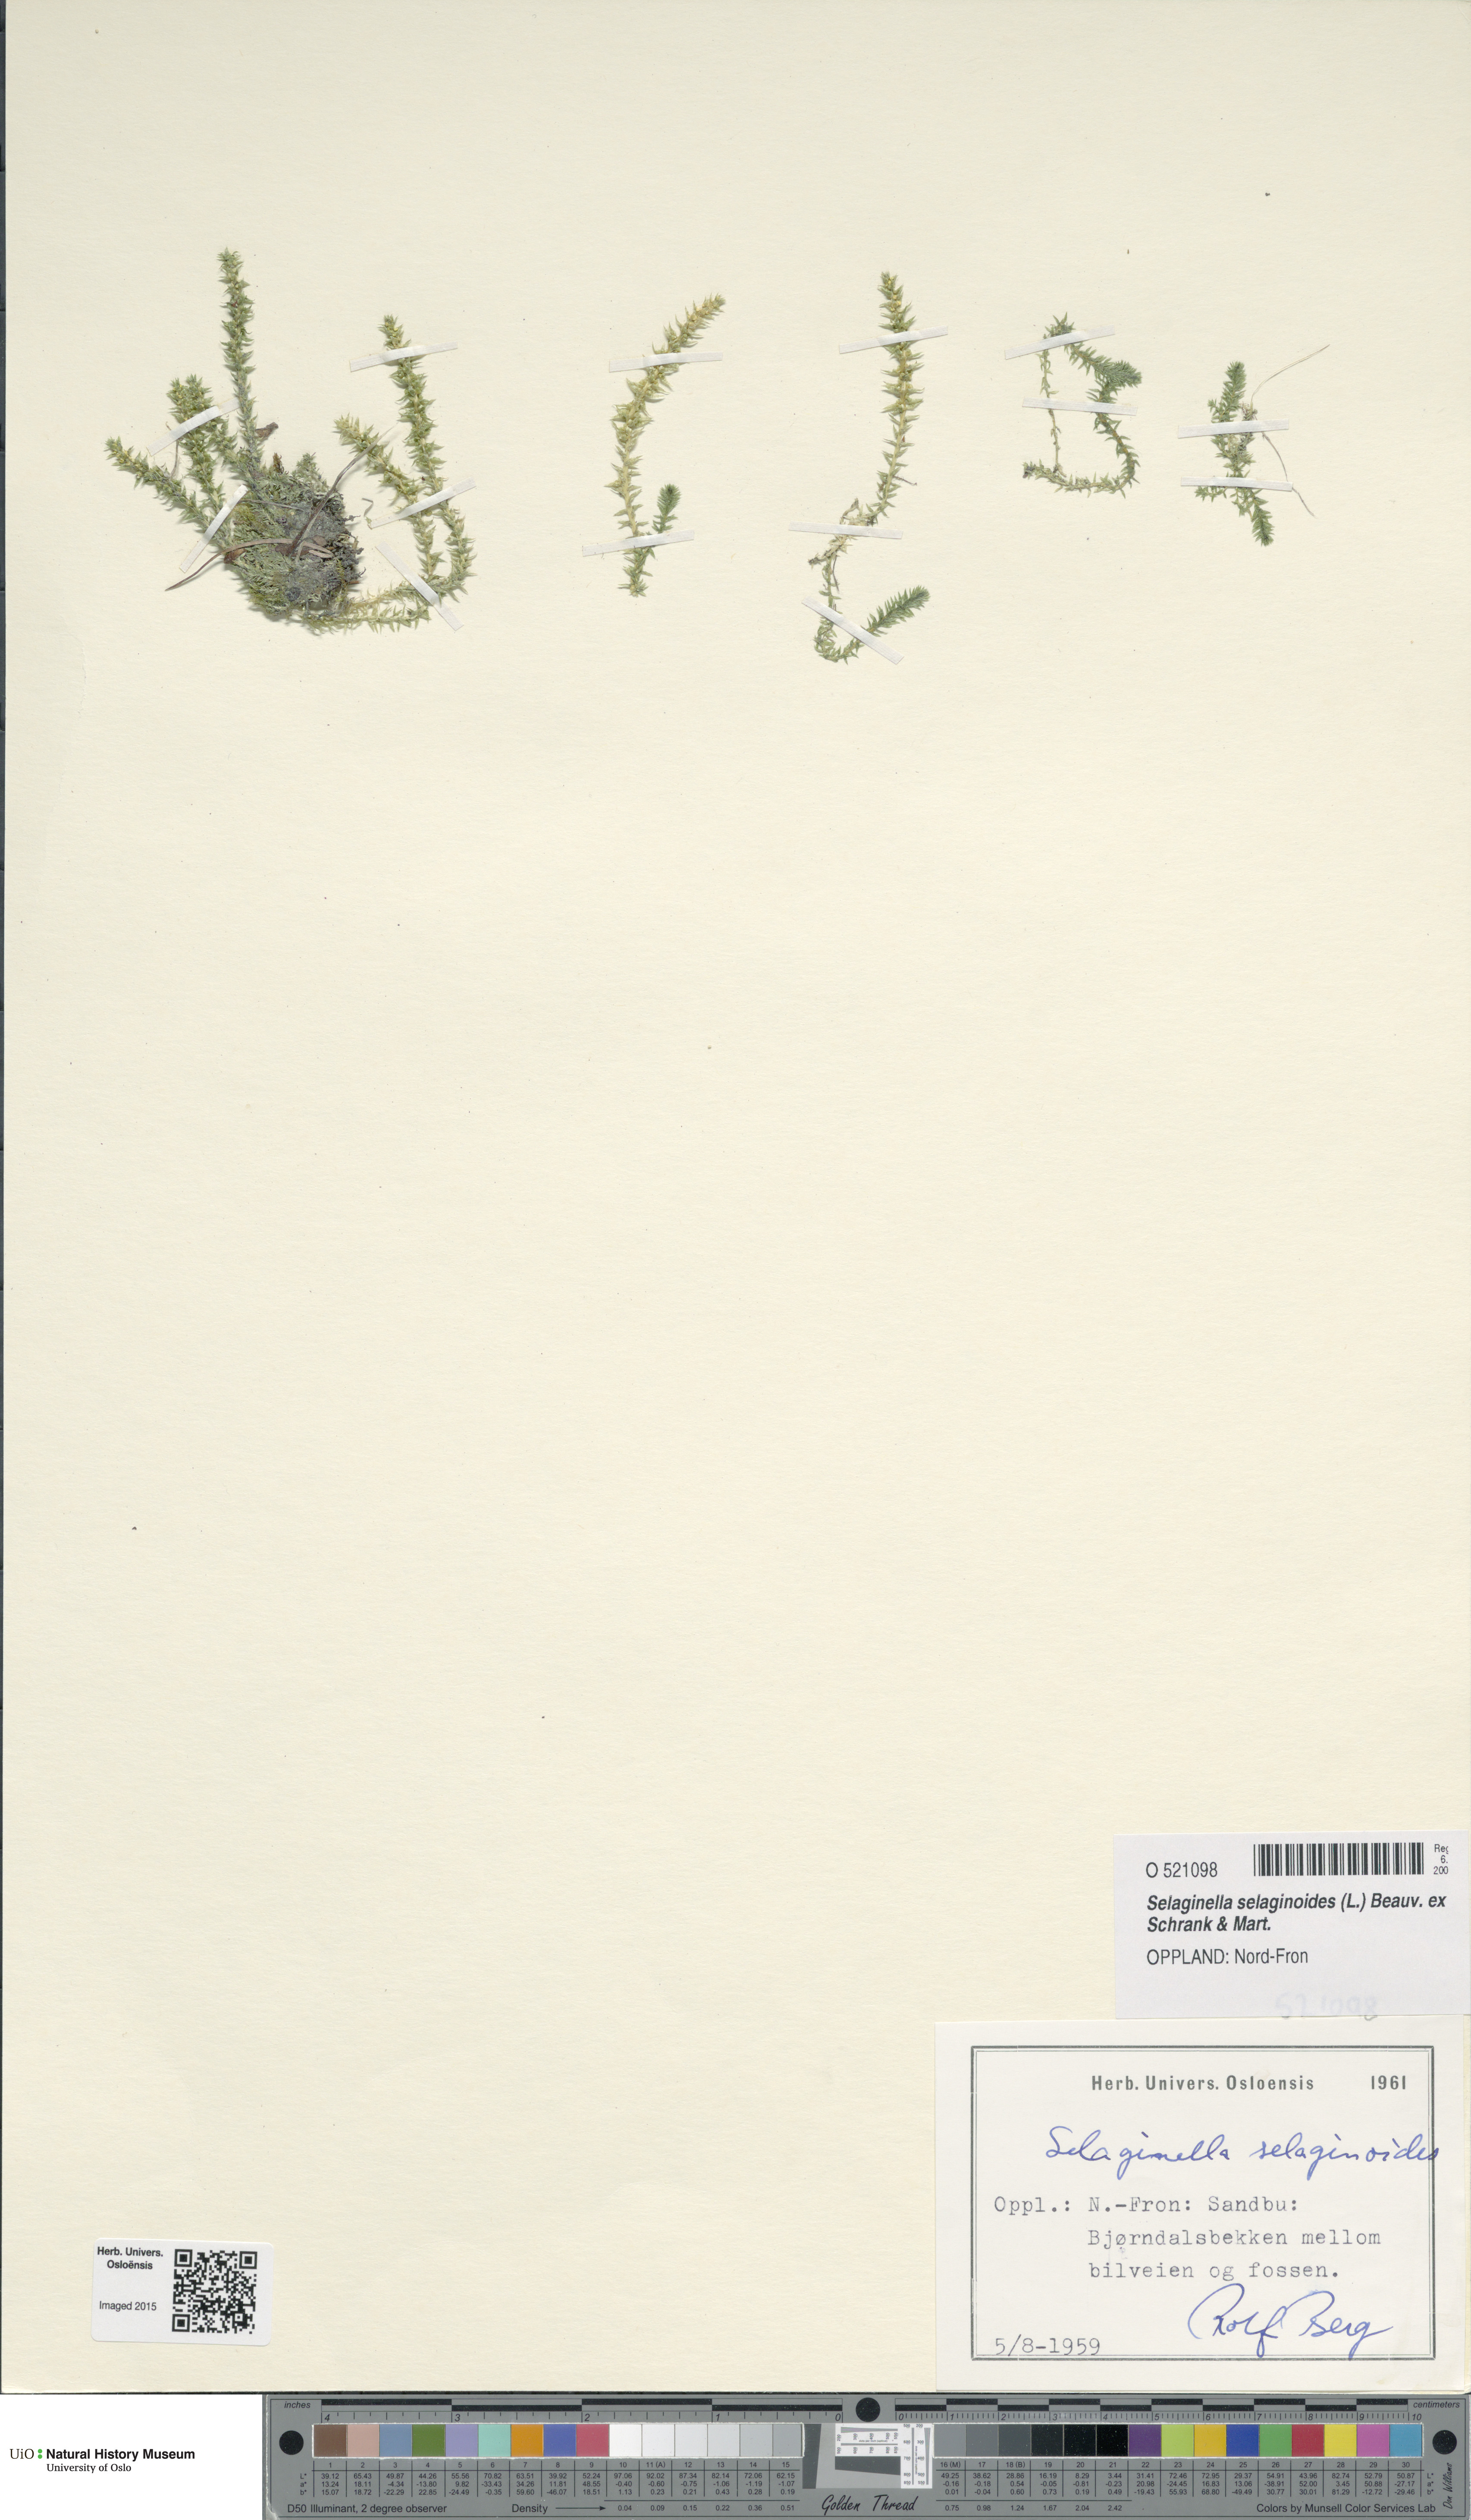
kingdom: Plantae
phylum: Tracheophyta
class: Lycopodiopsida
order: Selaginellales
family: Selaginellaceae
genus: Selaginella
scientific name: Selaginella selaginoides
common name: Prickly mountain-moss
